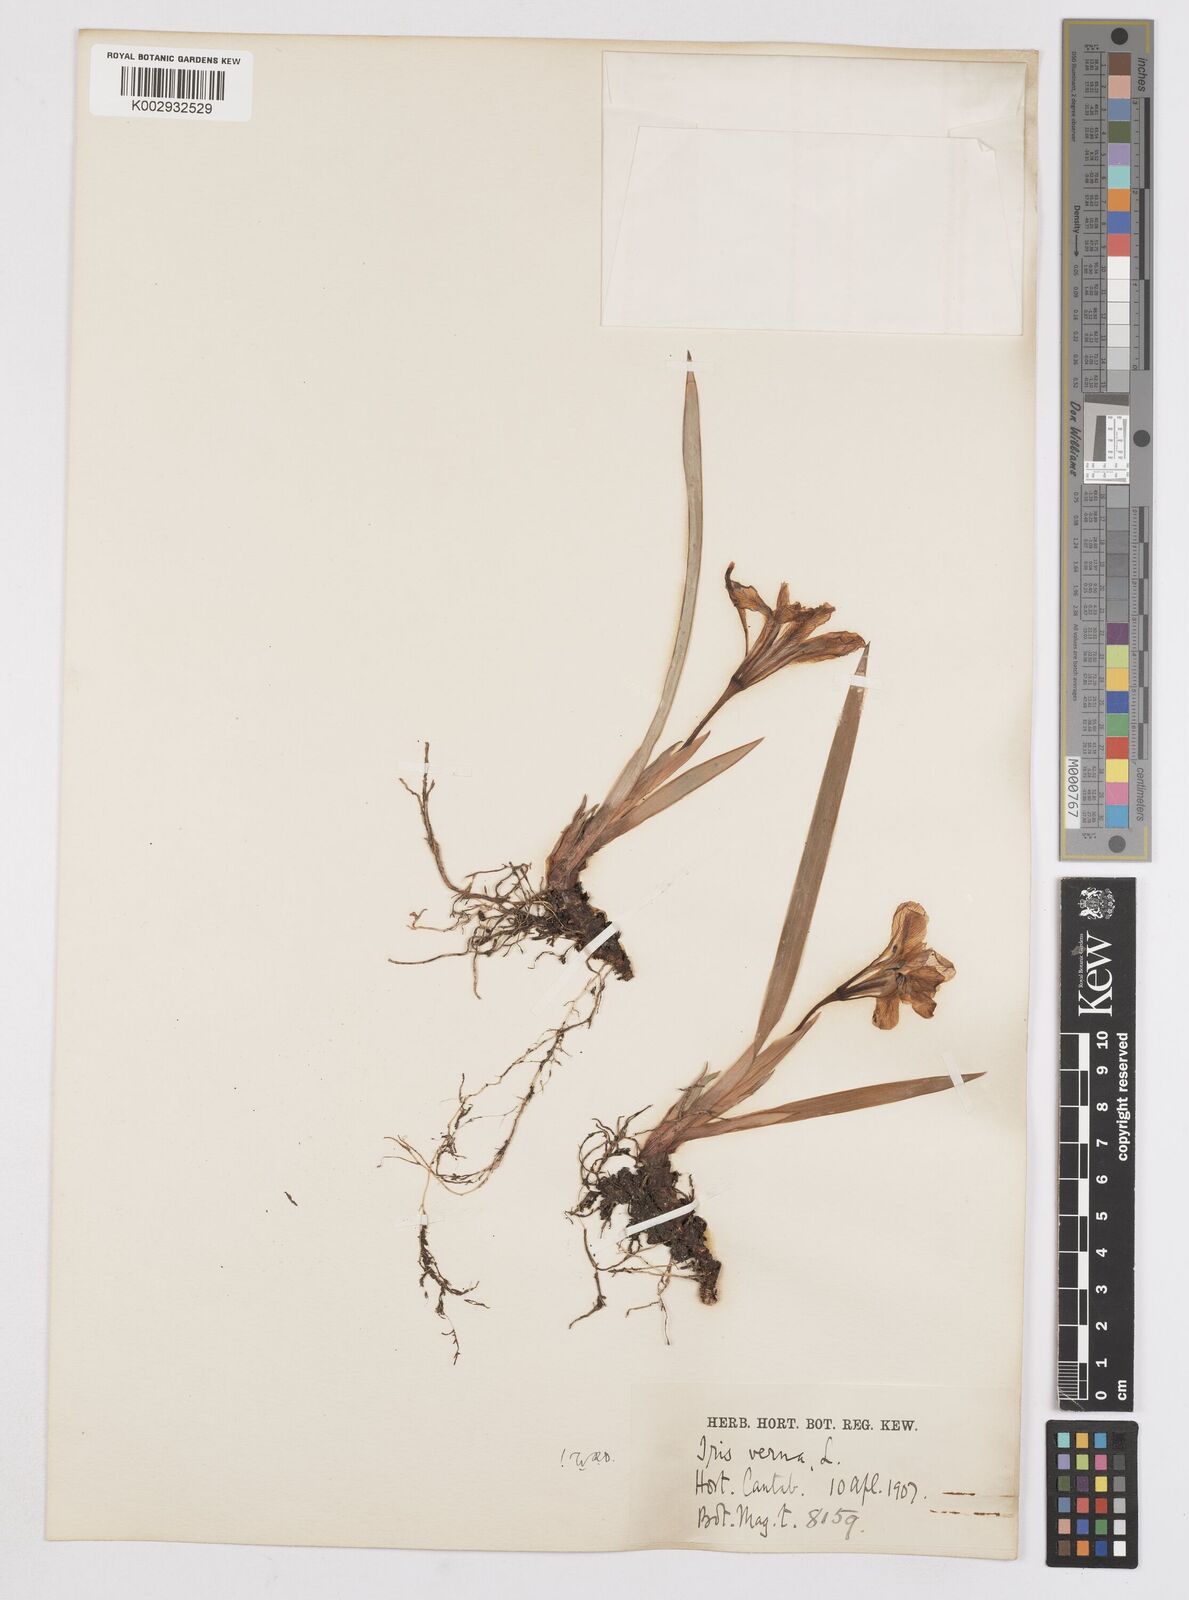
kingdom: Plantae
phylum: Tracheophyta
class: Liliopsida
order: Asparagales
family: Iridaceae
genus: Iris
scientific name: Iris verna
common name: Dwarf iris
